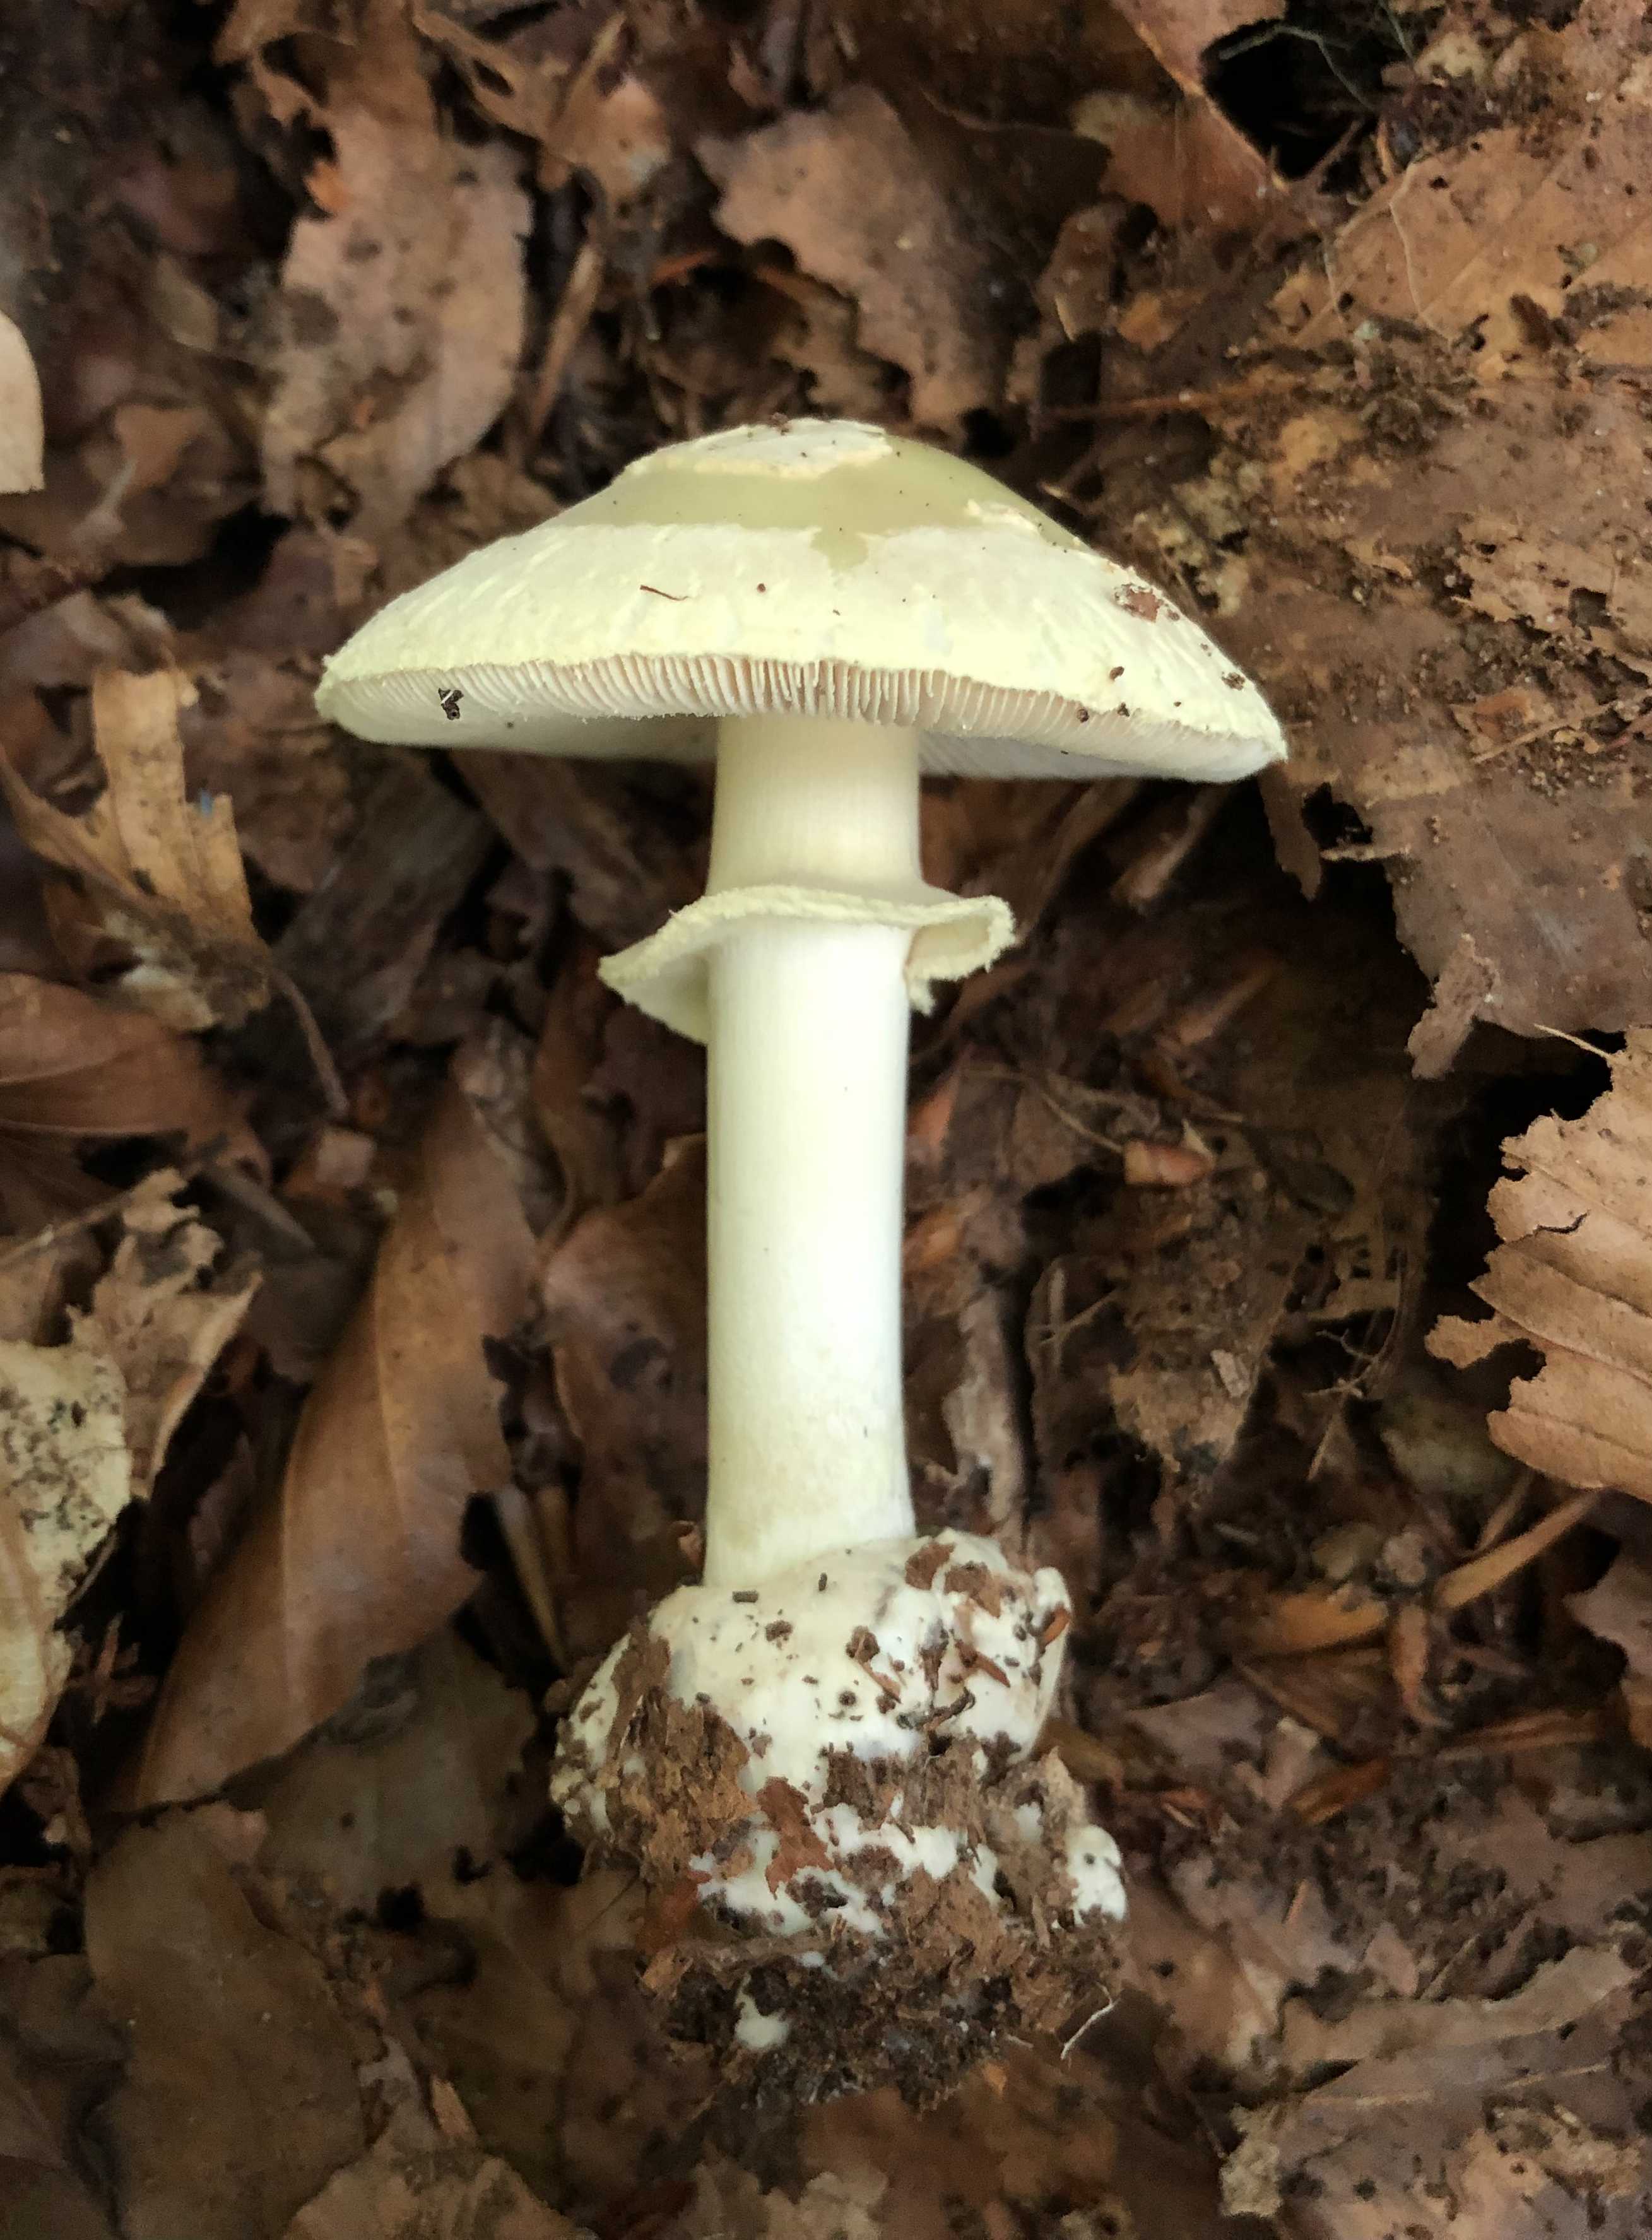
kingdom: Fungi
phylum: Basidiomycota
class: Agaricomycetes
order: Agaricales
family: Amanitaceae
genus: Amanita
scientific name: Amanita phalloides
